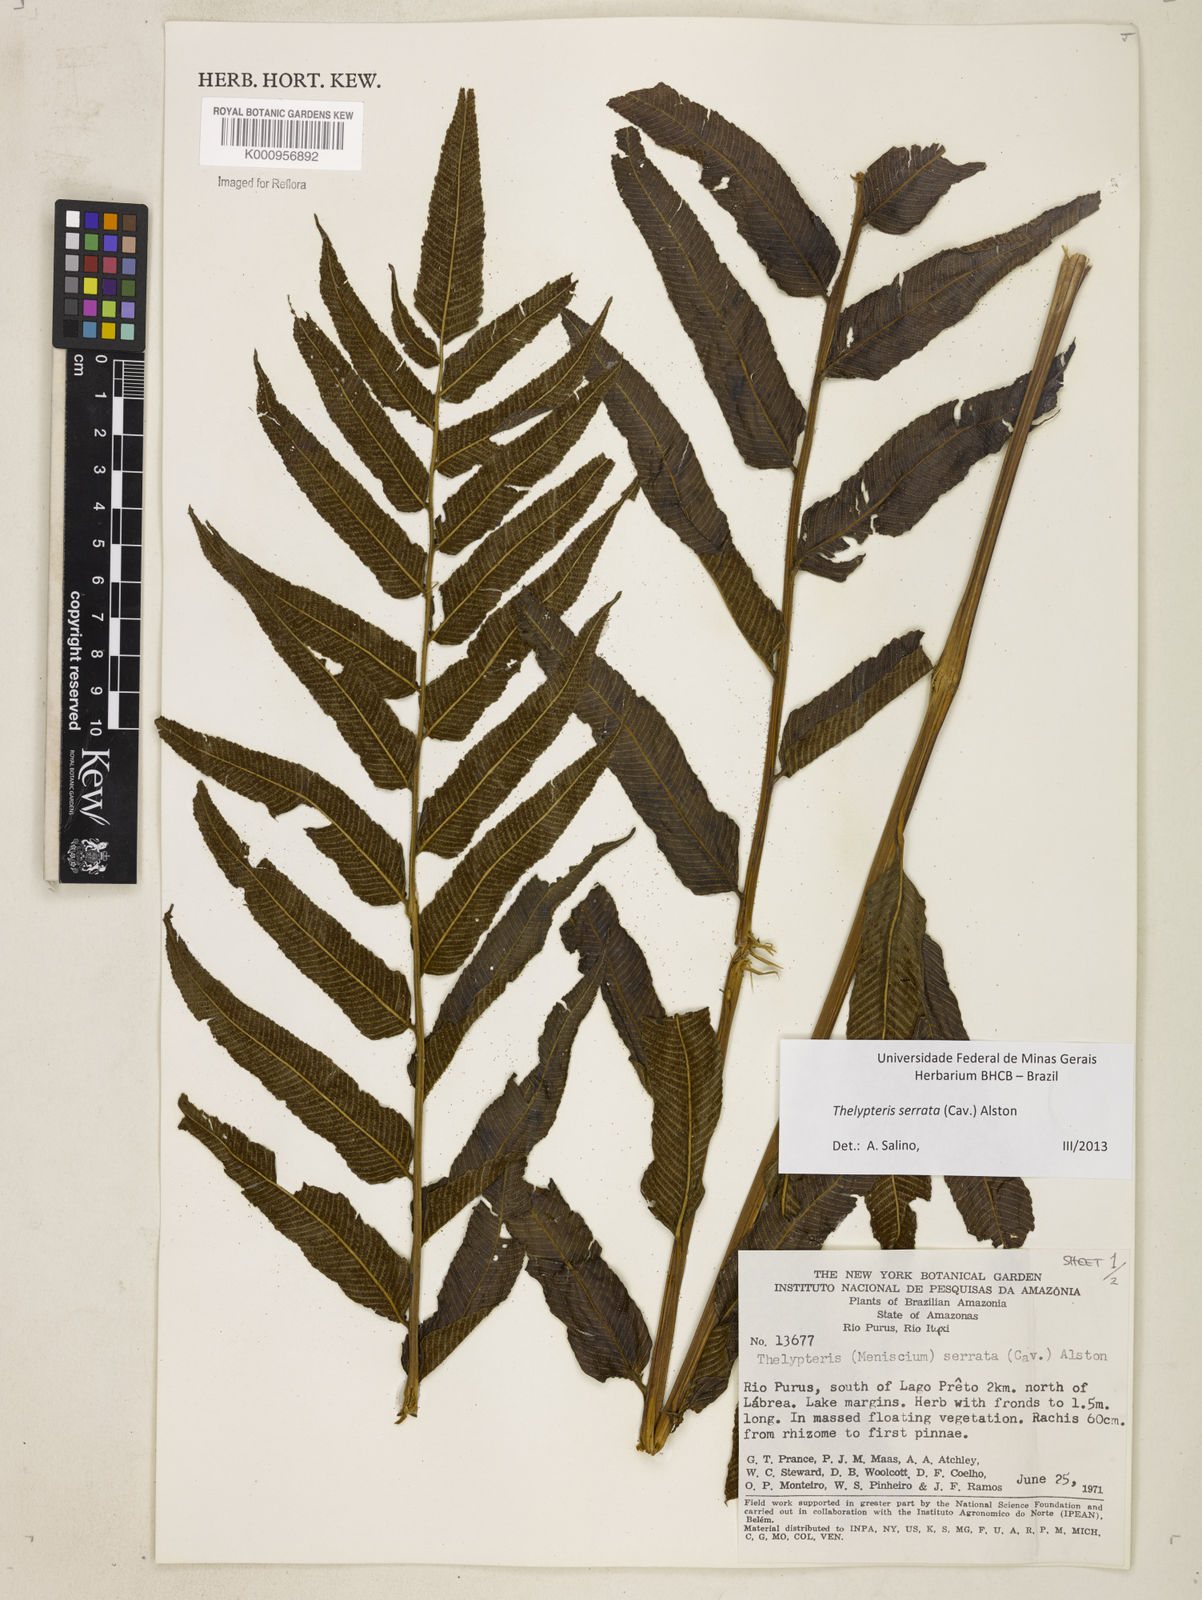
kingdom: Plantae
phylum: Tracheophyta
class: Polypodiopsida
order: Polypodiales
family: Thelypteridaceae
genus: Meniscium
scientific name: Meniscium serratum
